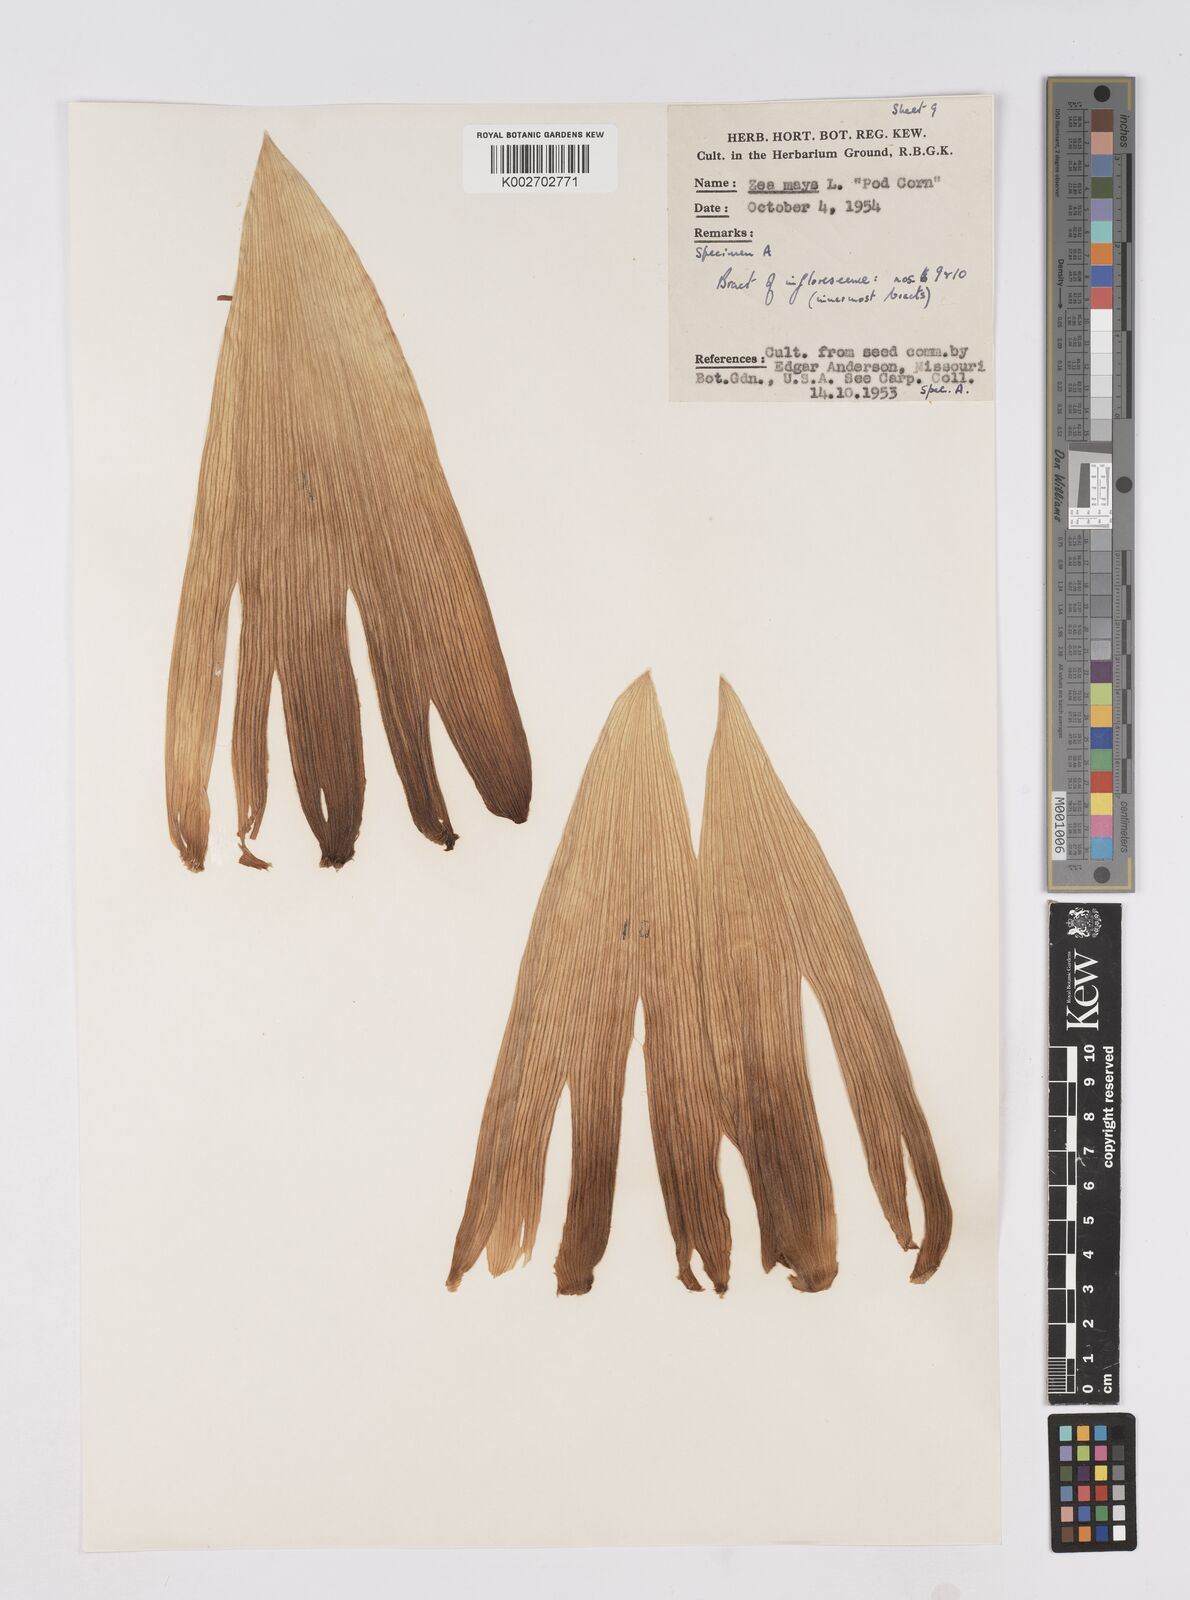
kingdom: Plantae
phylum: Tracheophyta
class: Liliopsida
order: Poales
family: Poaceae
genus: Zea
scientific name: Zea mays
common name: Maize
